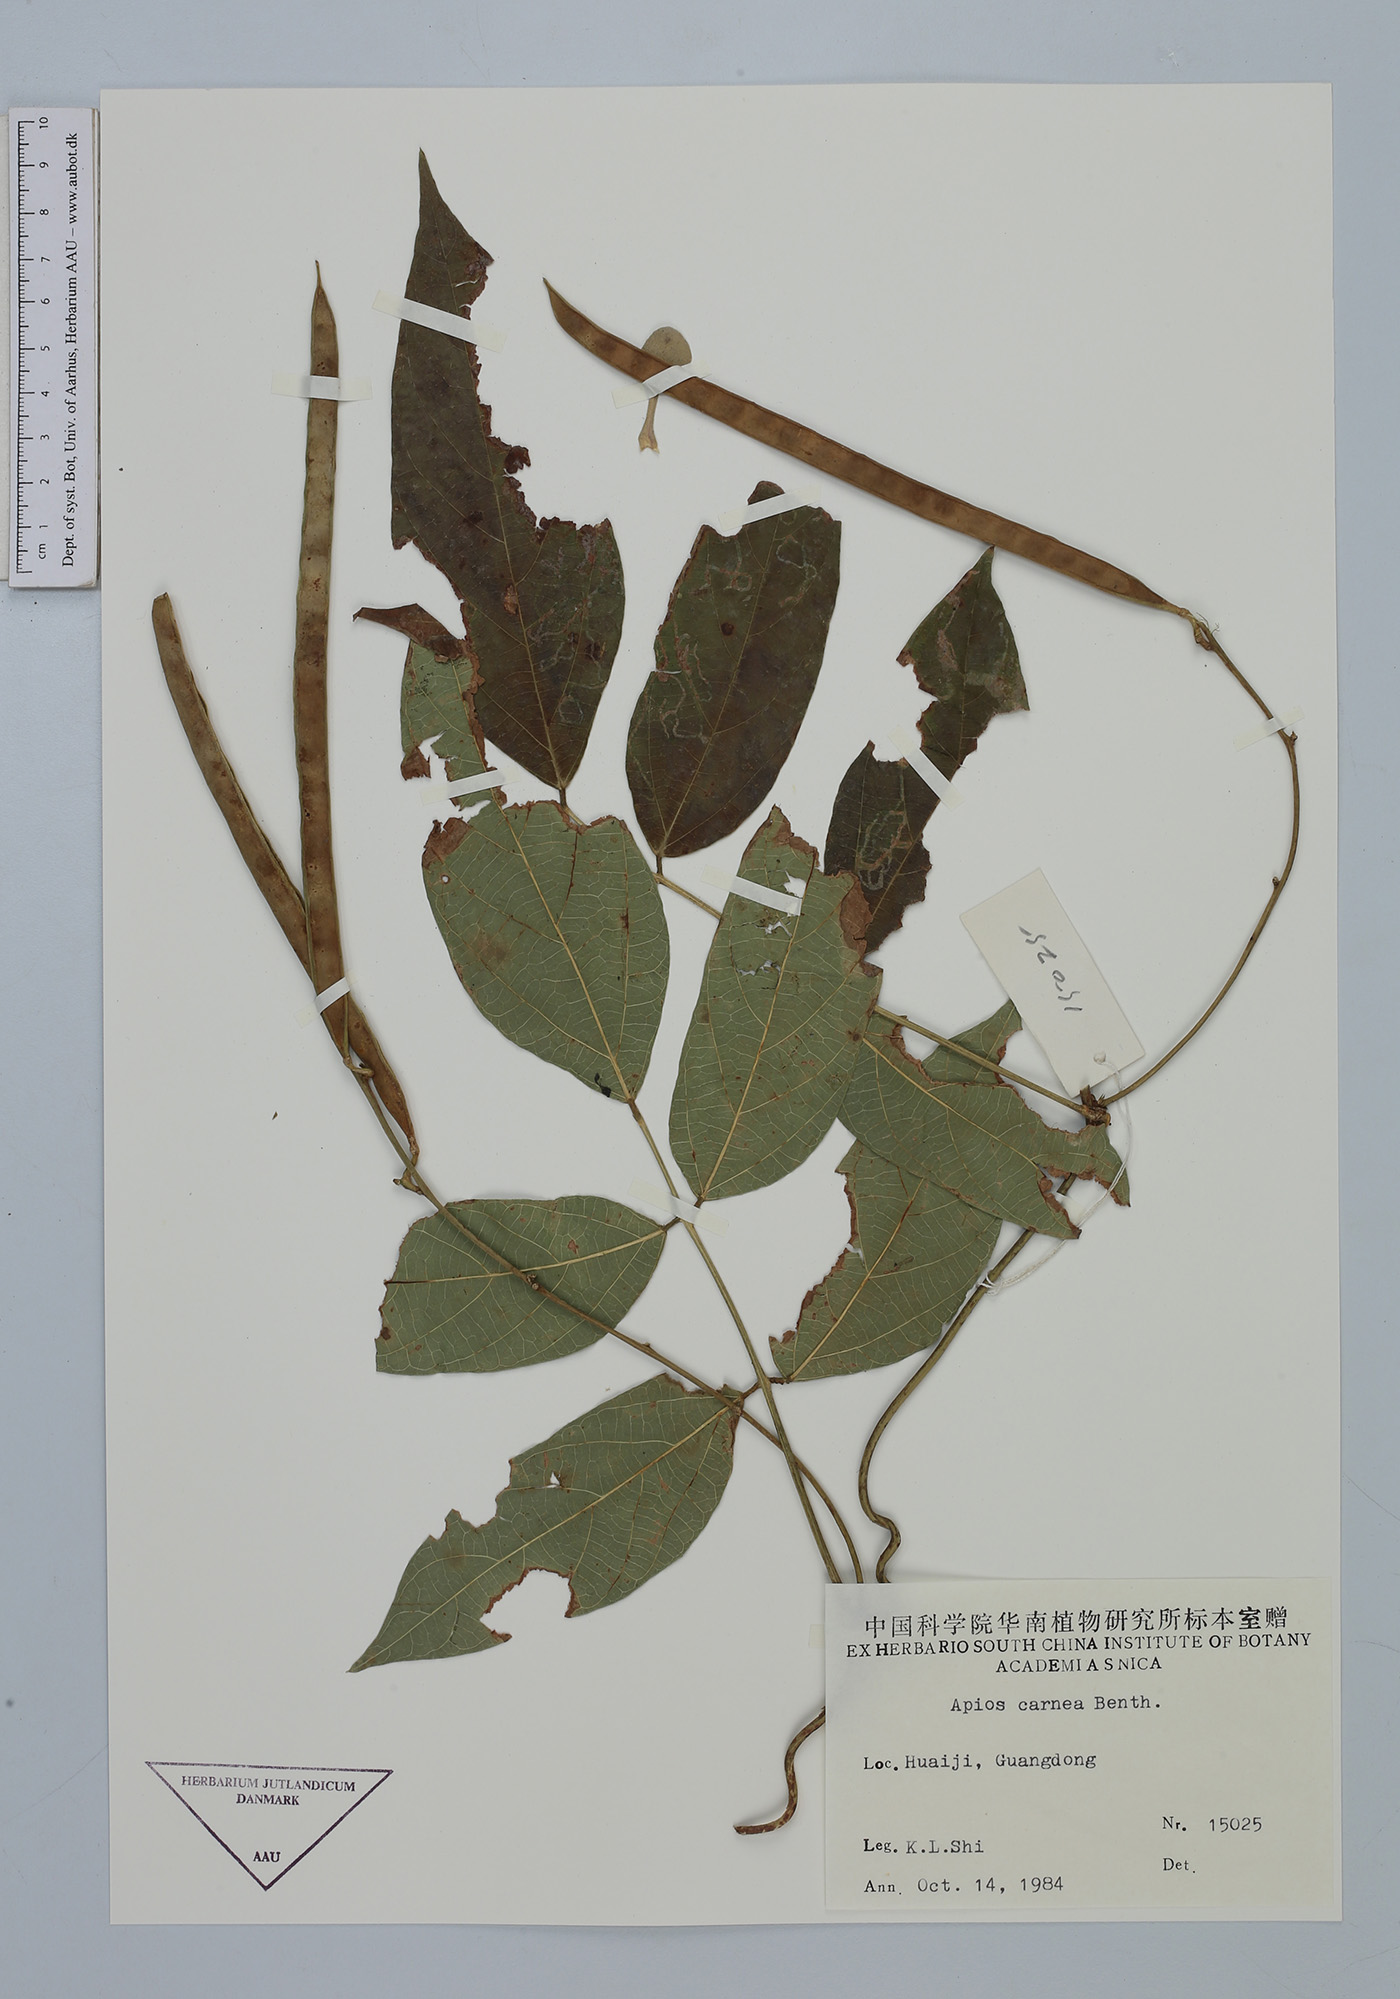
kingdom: Plantae
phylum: Tracheophyta
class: Magnoliopsida
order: Fabales
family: Fabaceae
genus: Apios
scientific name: Apios carnea
